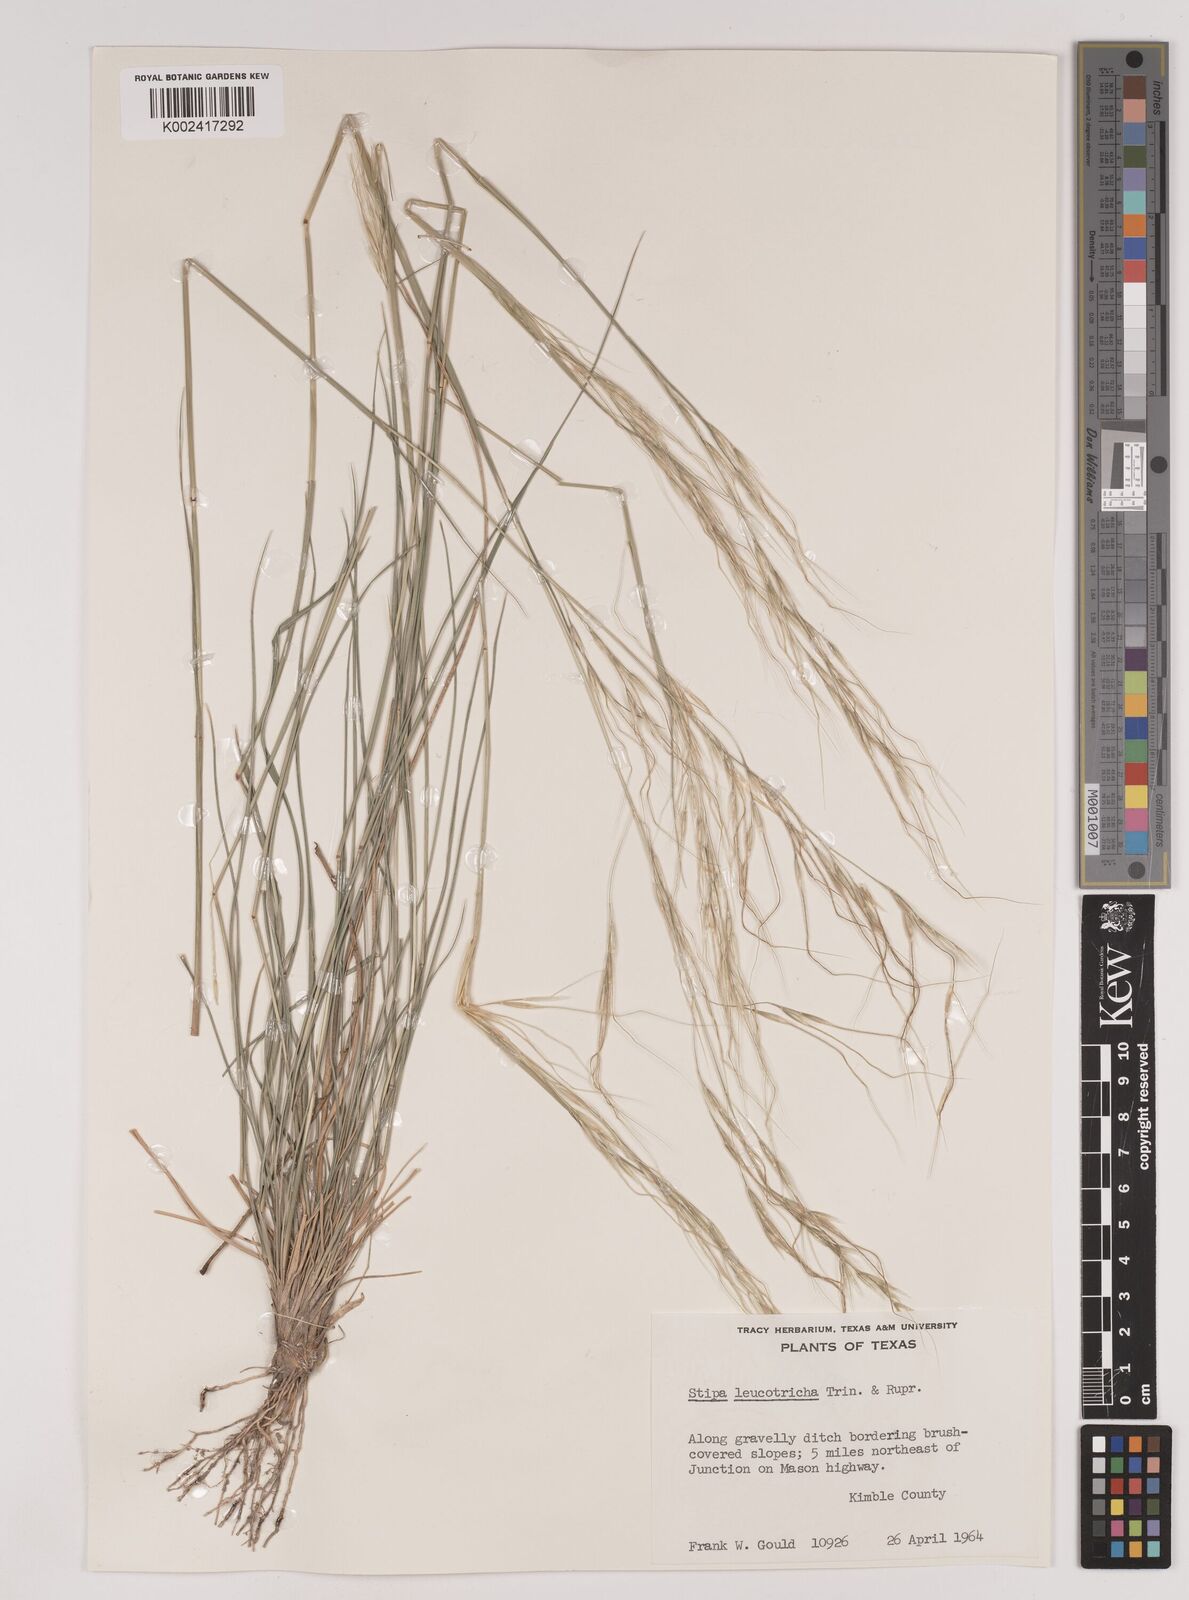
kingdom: Plantae
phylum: Tracheophyta
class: Liliopsida
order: Poales
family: Poaceae
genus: Nassella
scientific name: Nassella leucotricha
